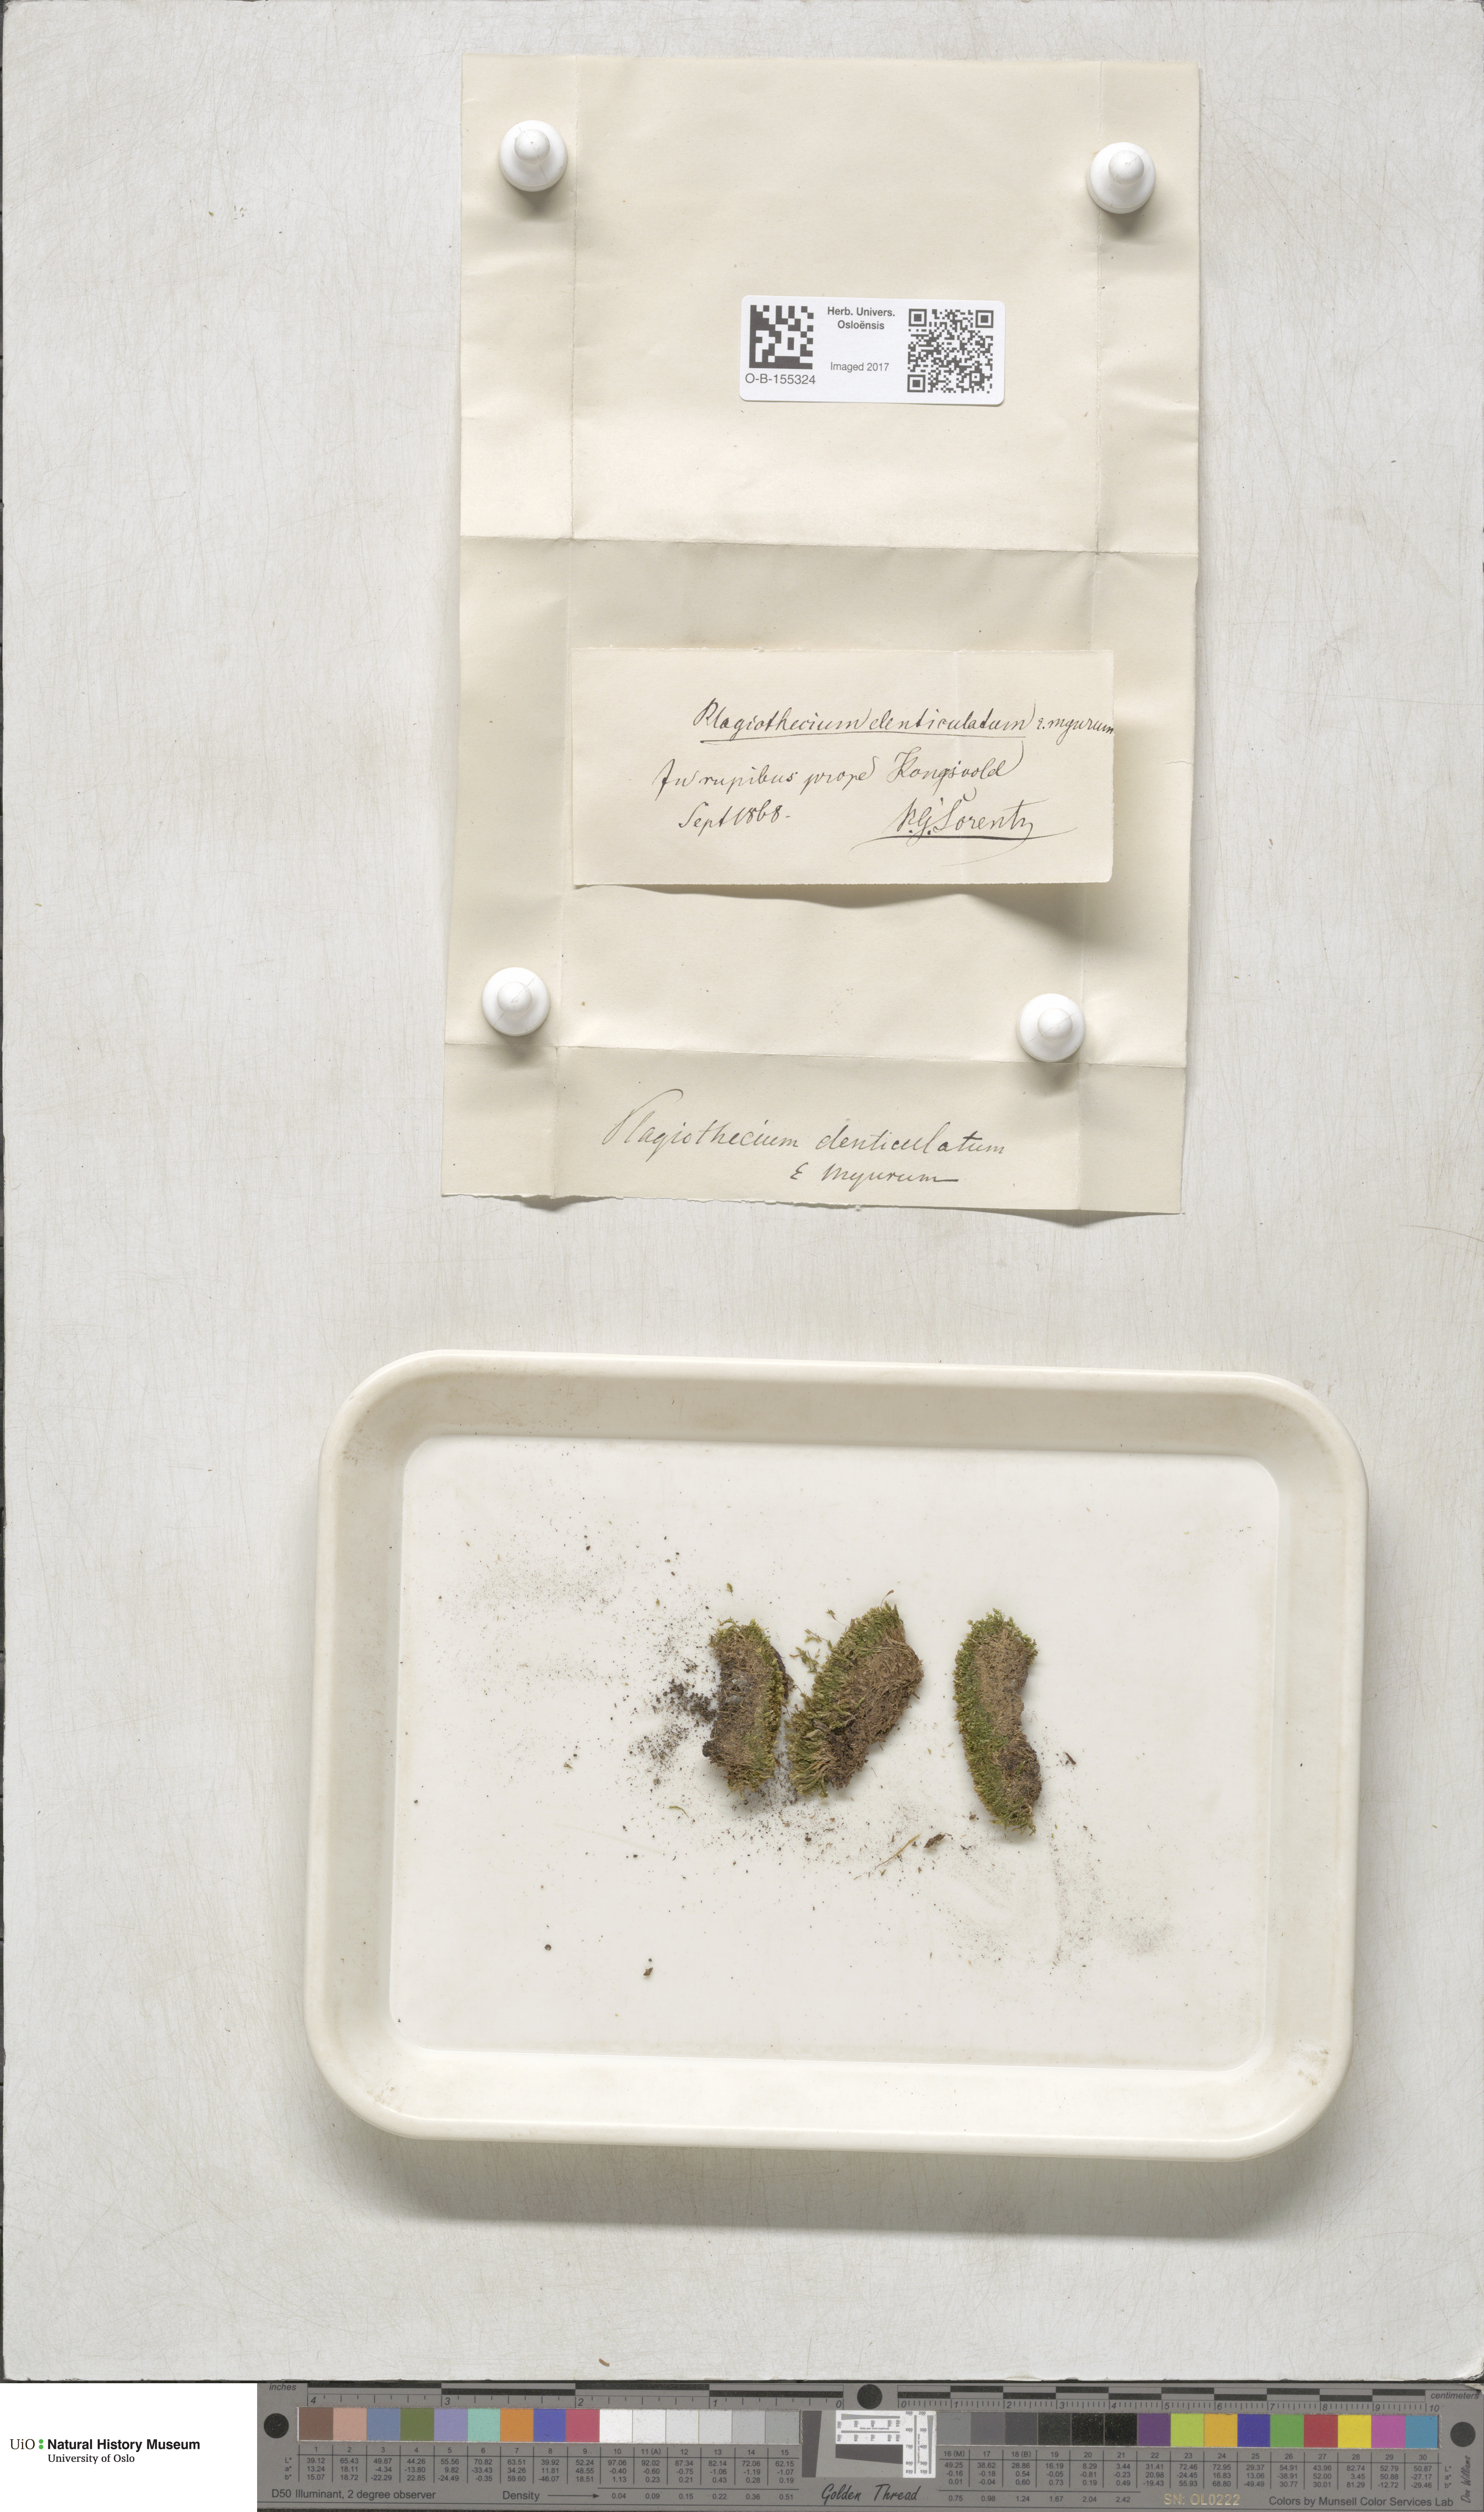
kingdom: Plantae
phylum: Bryophyta
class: Bryopsida
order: Hypnales
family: Plagiotheciaceae
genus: Plagiothecium
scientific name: Plagiothecium denticulatum
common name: Dented silk moss
